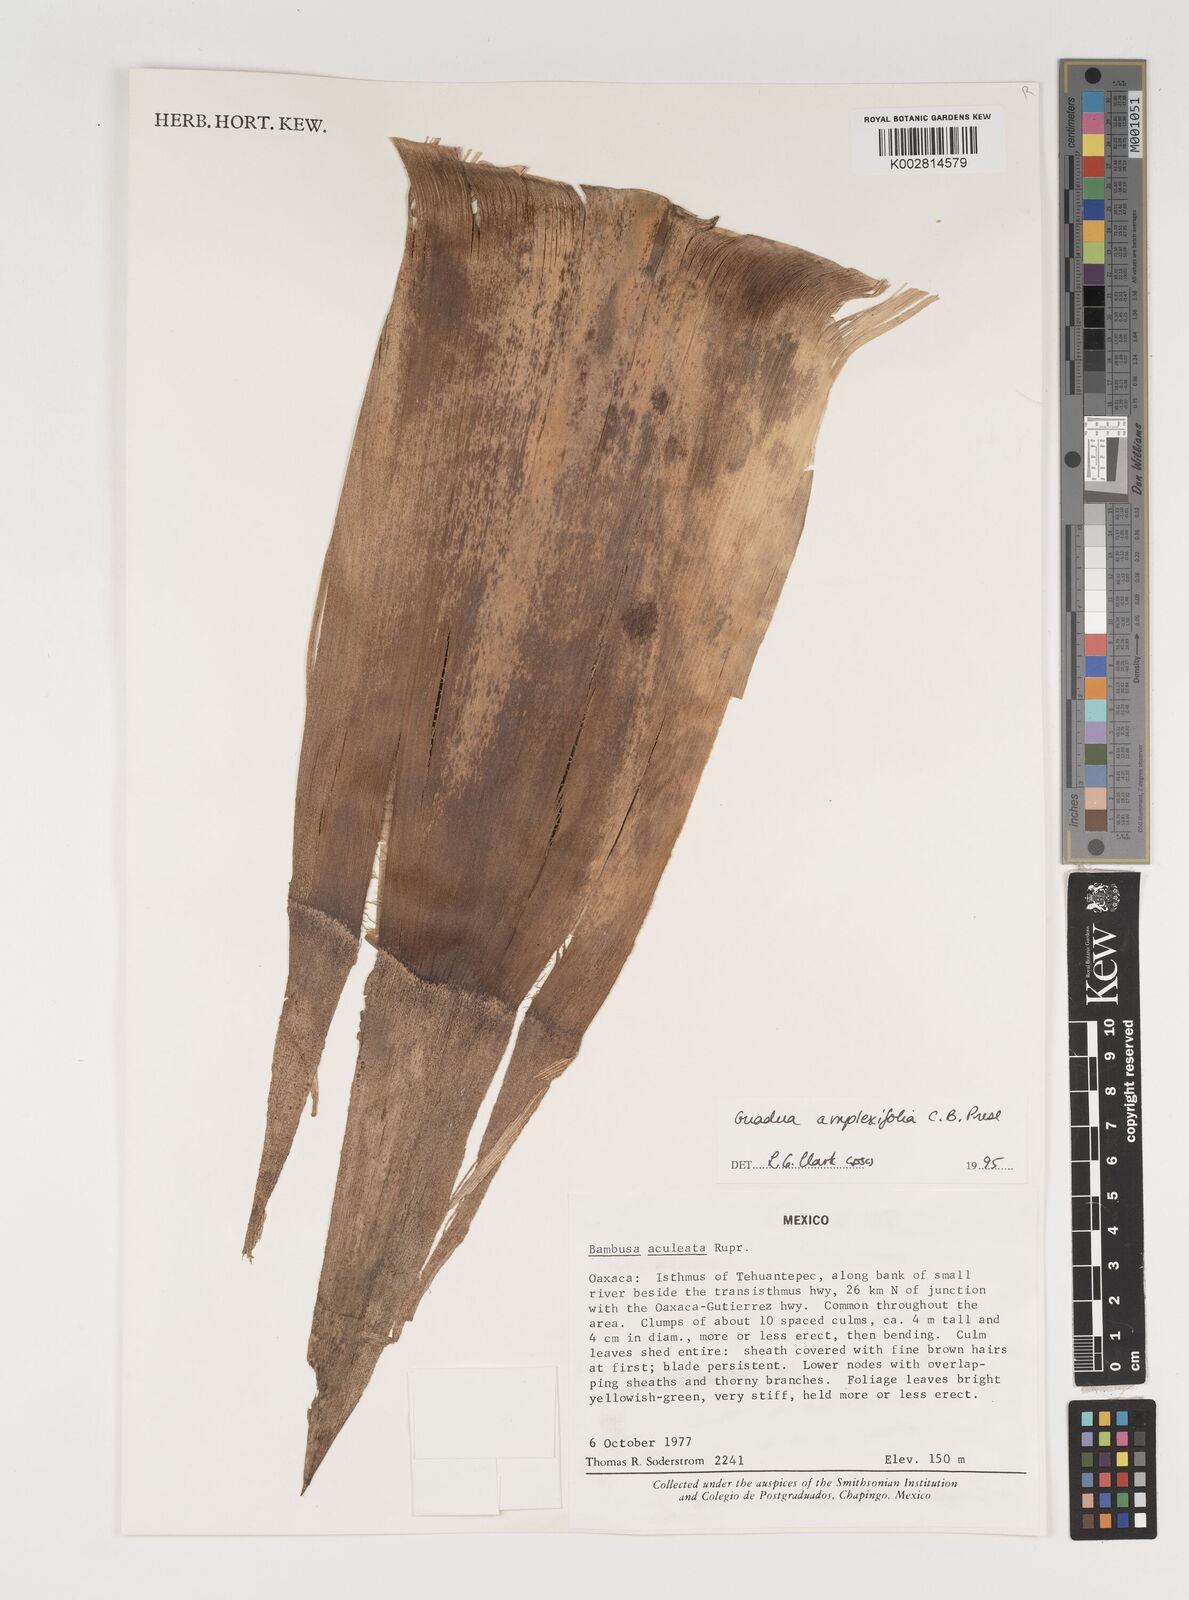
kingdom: Plantae
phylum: Tracheophyta
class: Liliopsida
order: Poales
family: Poaceae
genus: Guadua
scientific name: Guadua
